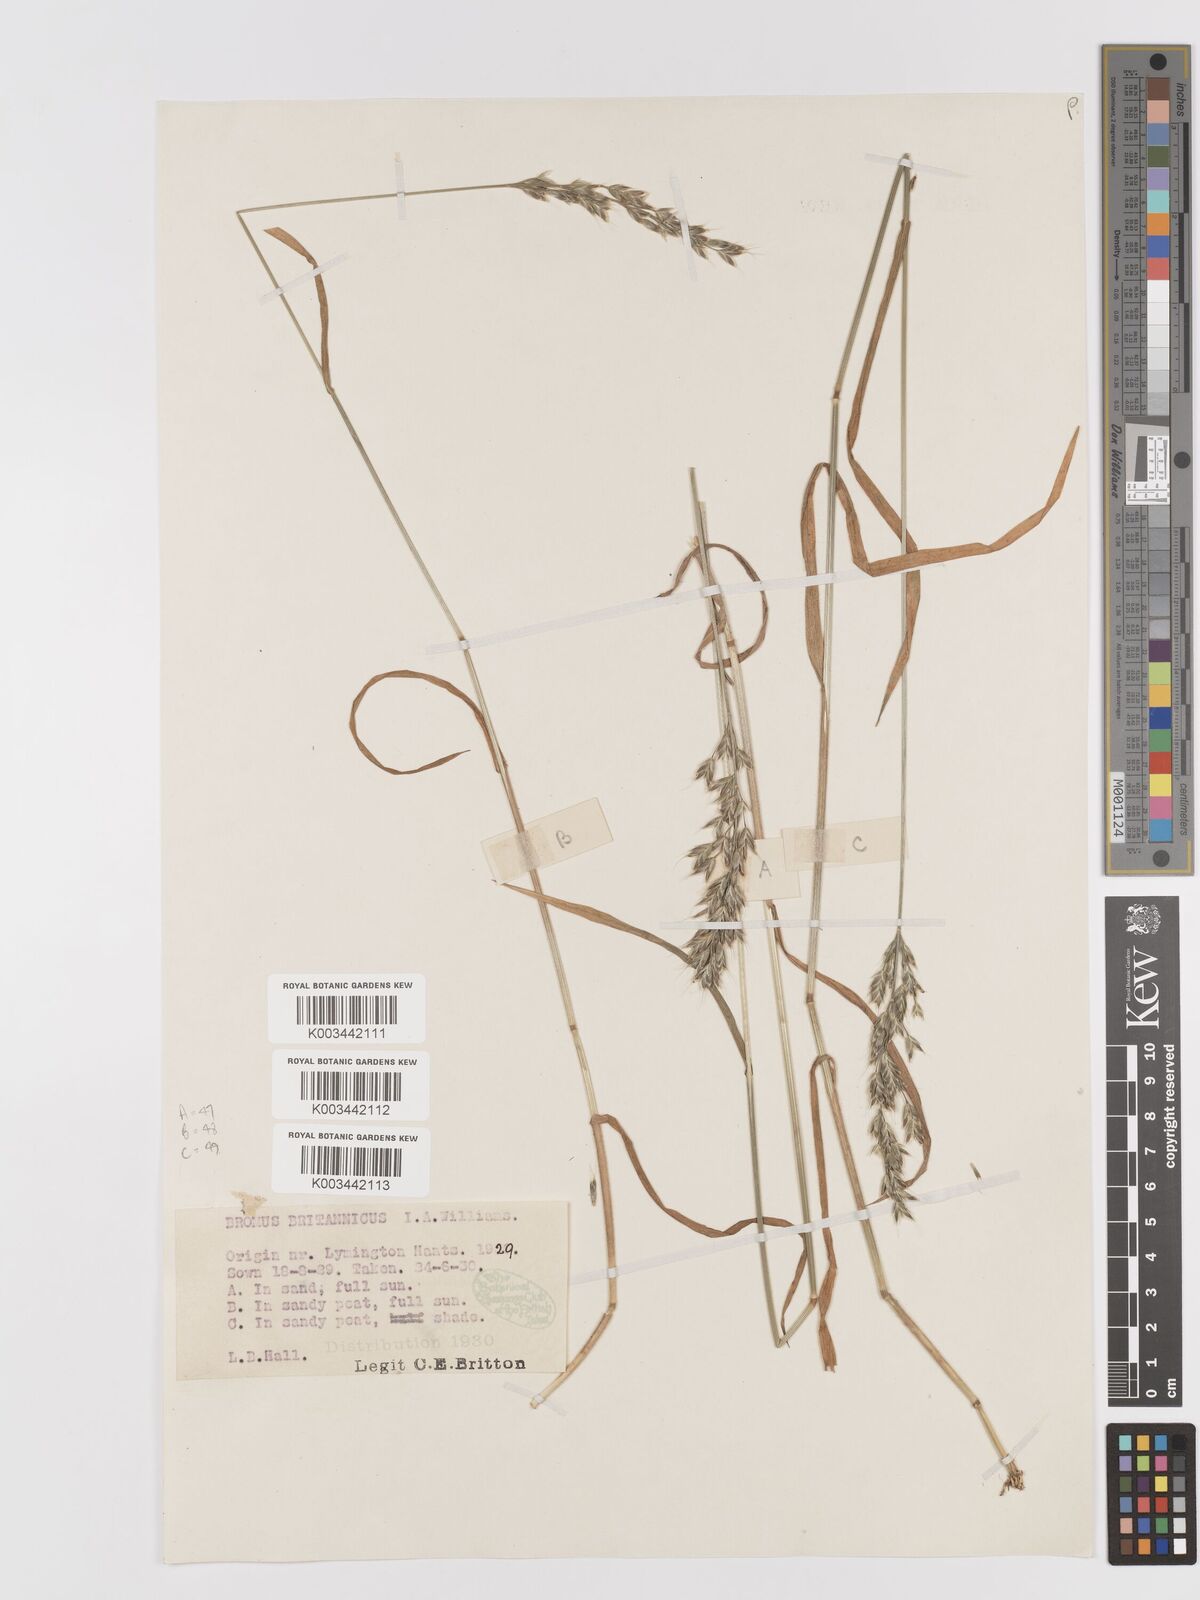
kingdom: Plantae
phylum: Tracheophyta
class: Liliopsida
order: Poales
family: Poaceae
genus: Bromus
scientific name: Bromus lepidus
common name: Slender soft-brome
